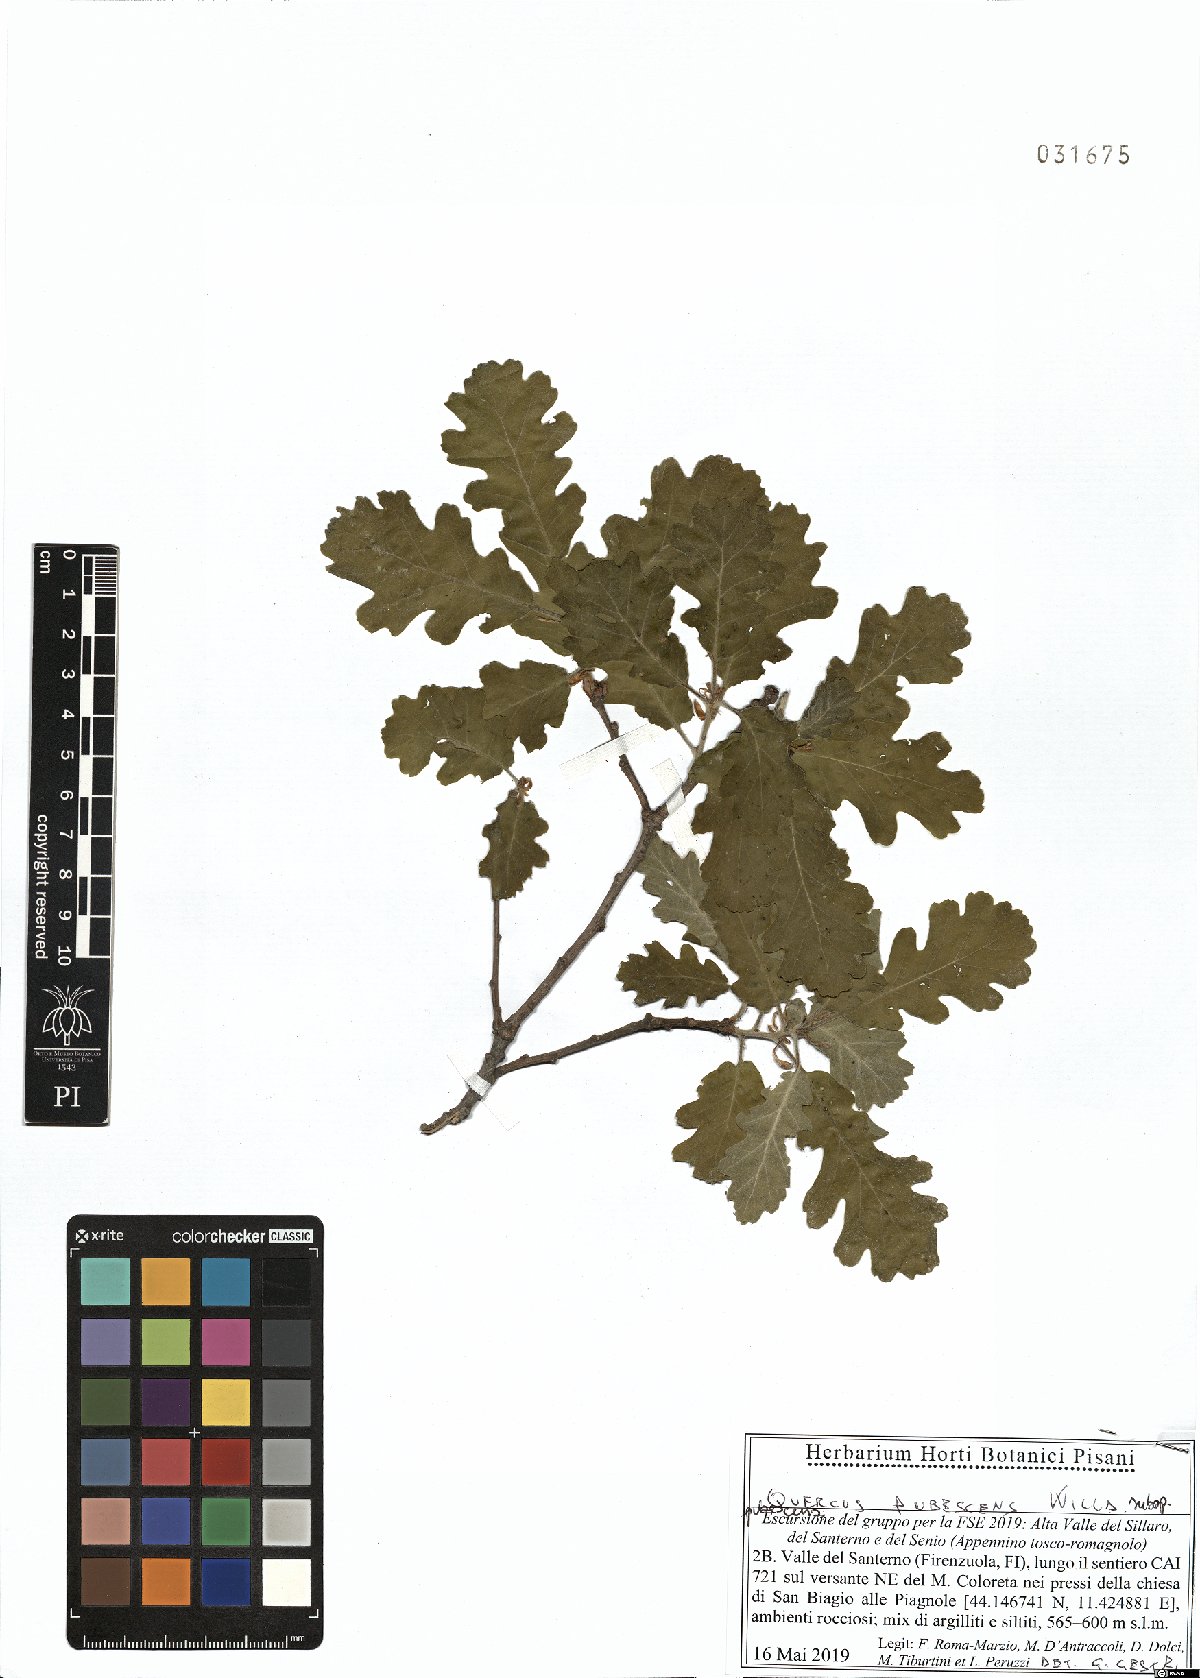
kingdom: Plantae
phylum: Tracheophyta
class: Magnoliopsida
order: Fagales
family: Fagaceae
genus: Quercus
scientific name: Quercus pubescens
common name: Downy oak
